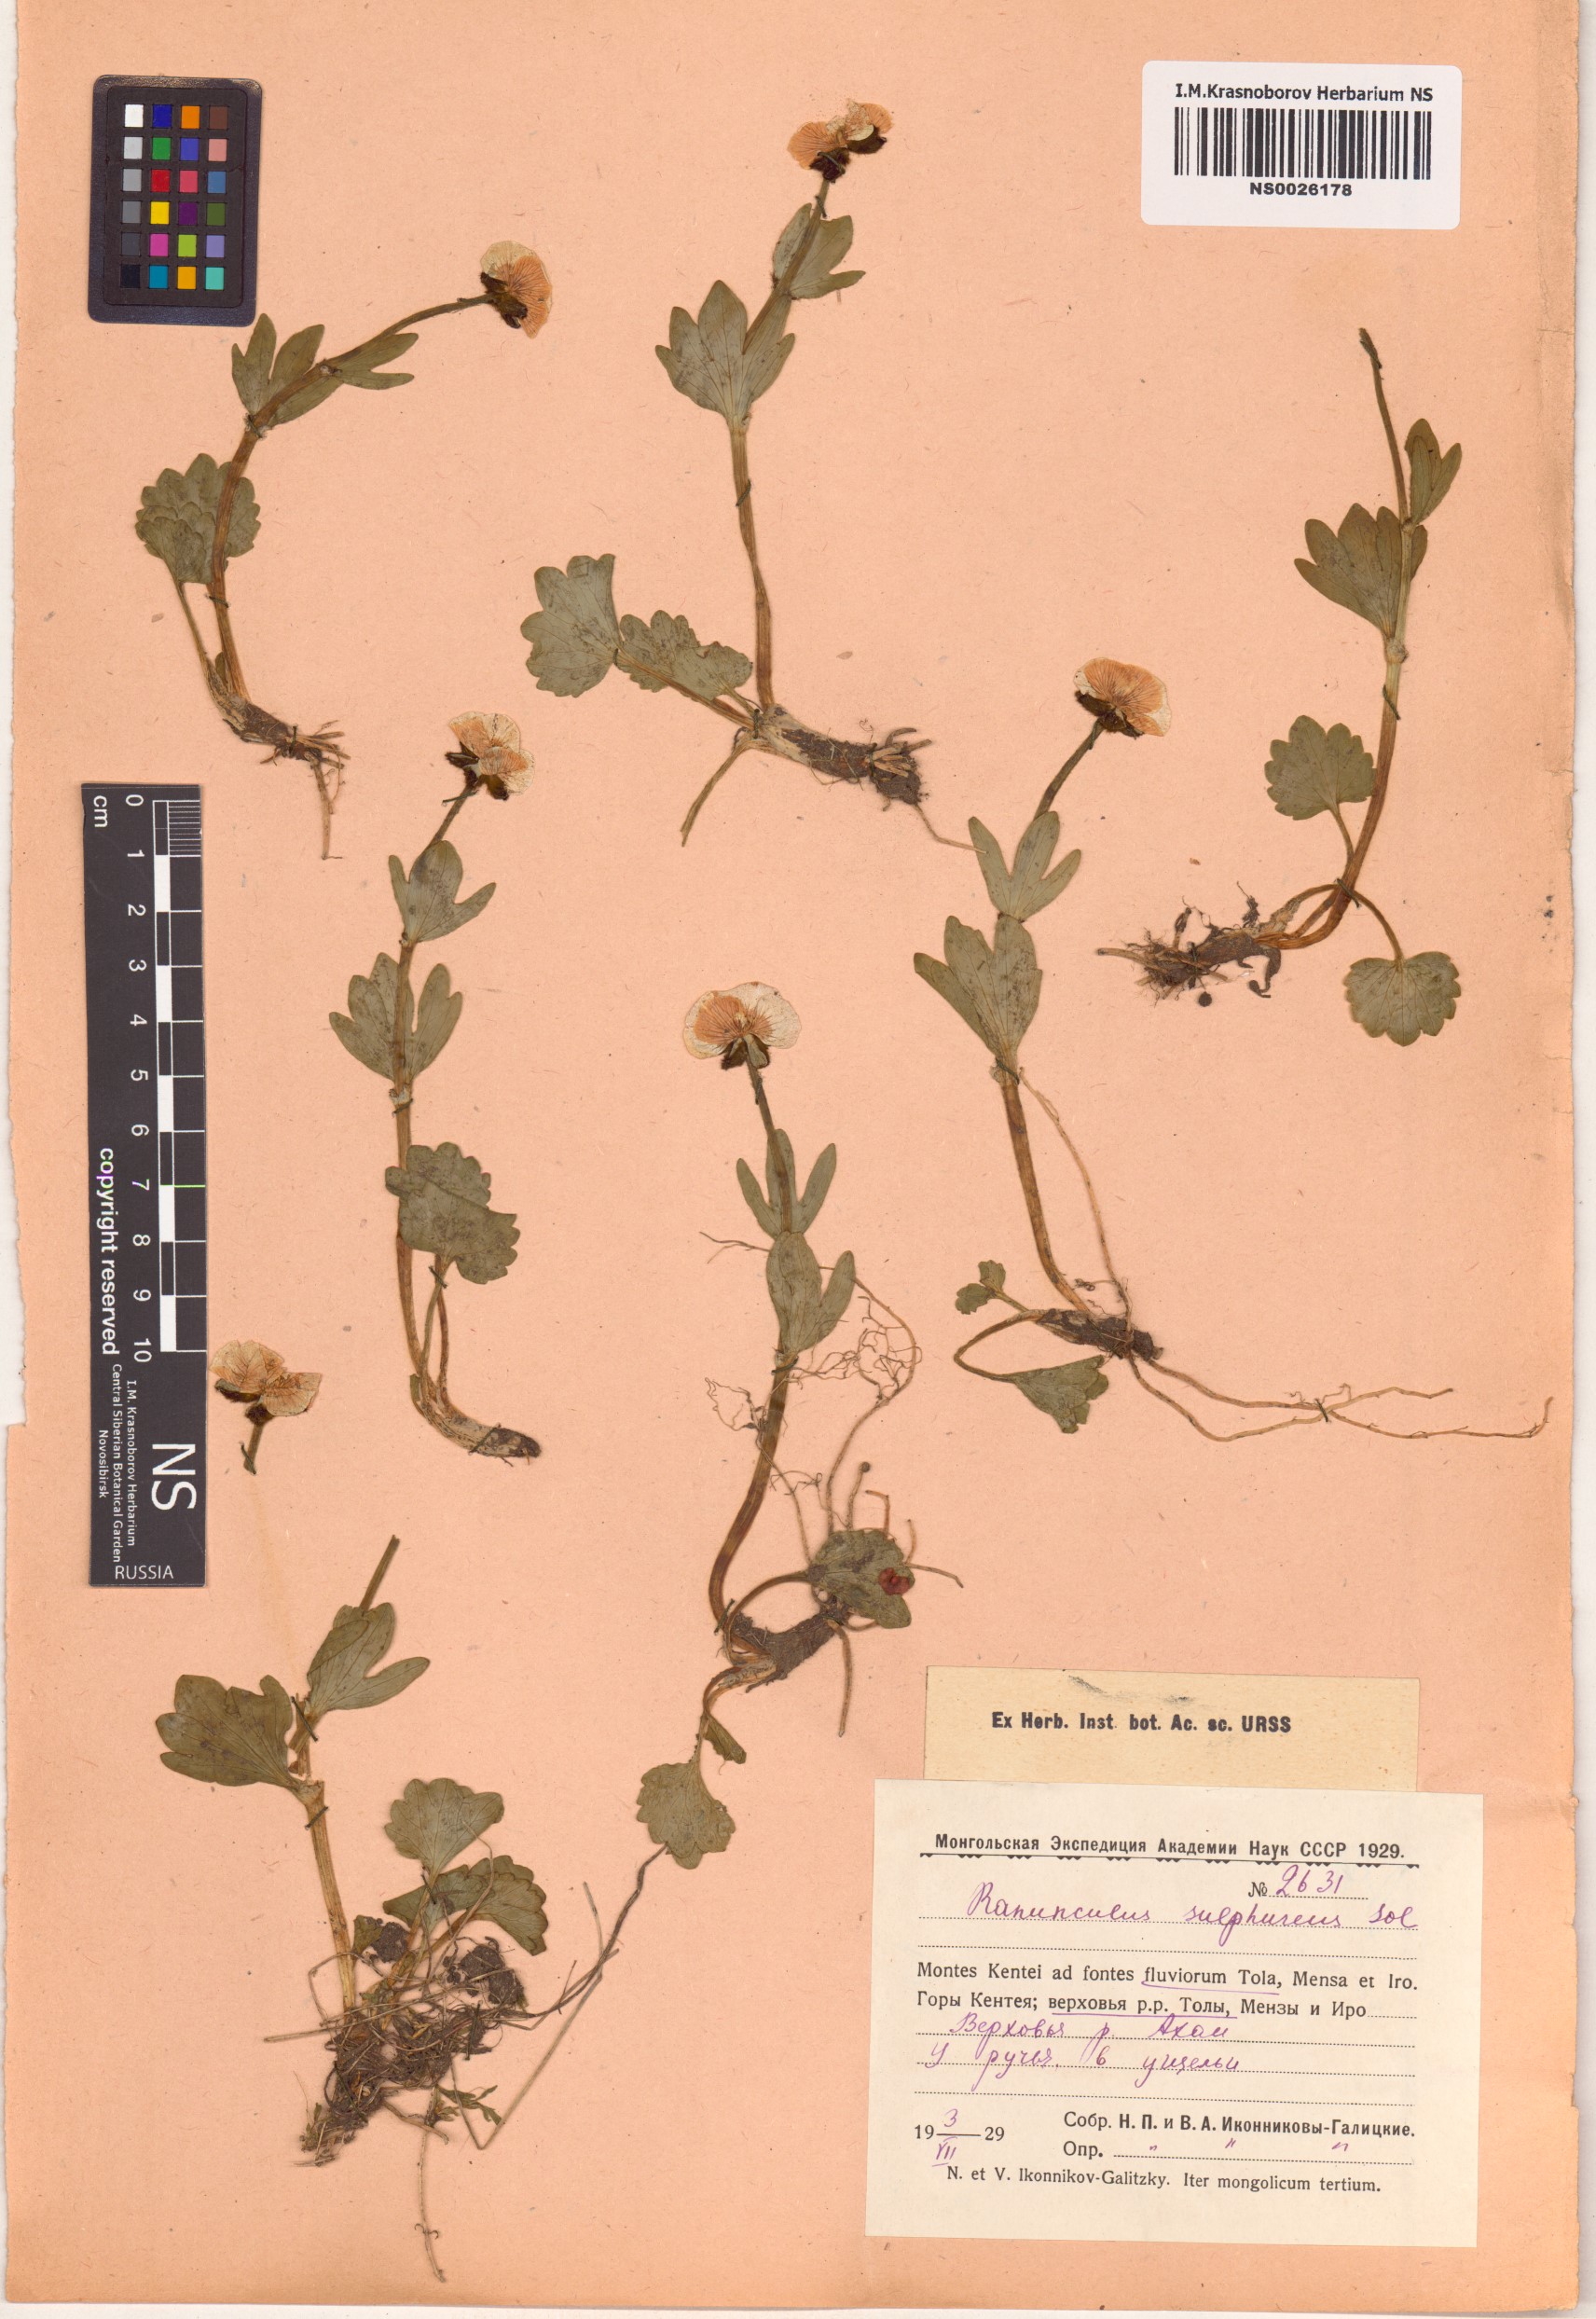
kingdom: Plantae
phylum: Tracheophyta
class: Magnoliopsida
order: Ranunculales
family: Ranunculaceae
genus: Ranunculus
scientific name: Ranunculus sulphureus
